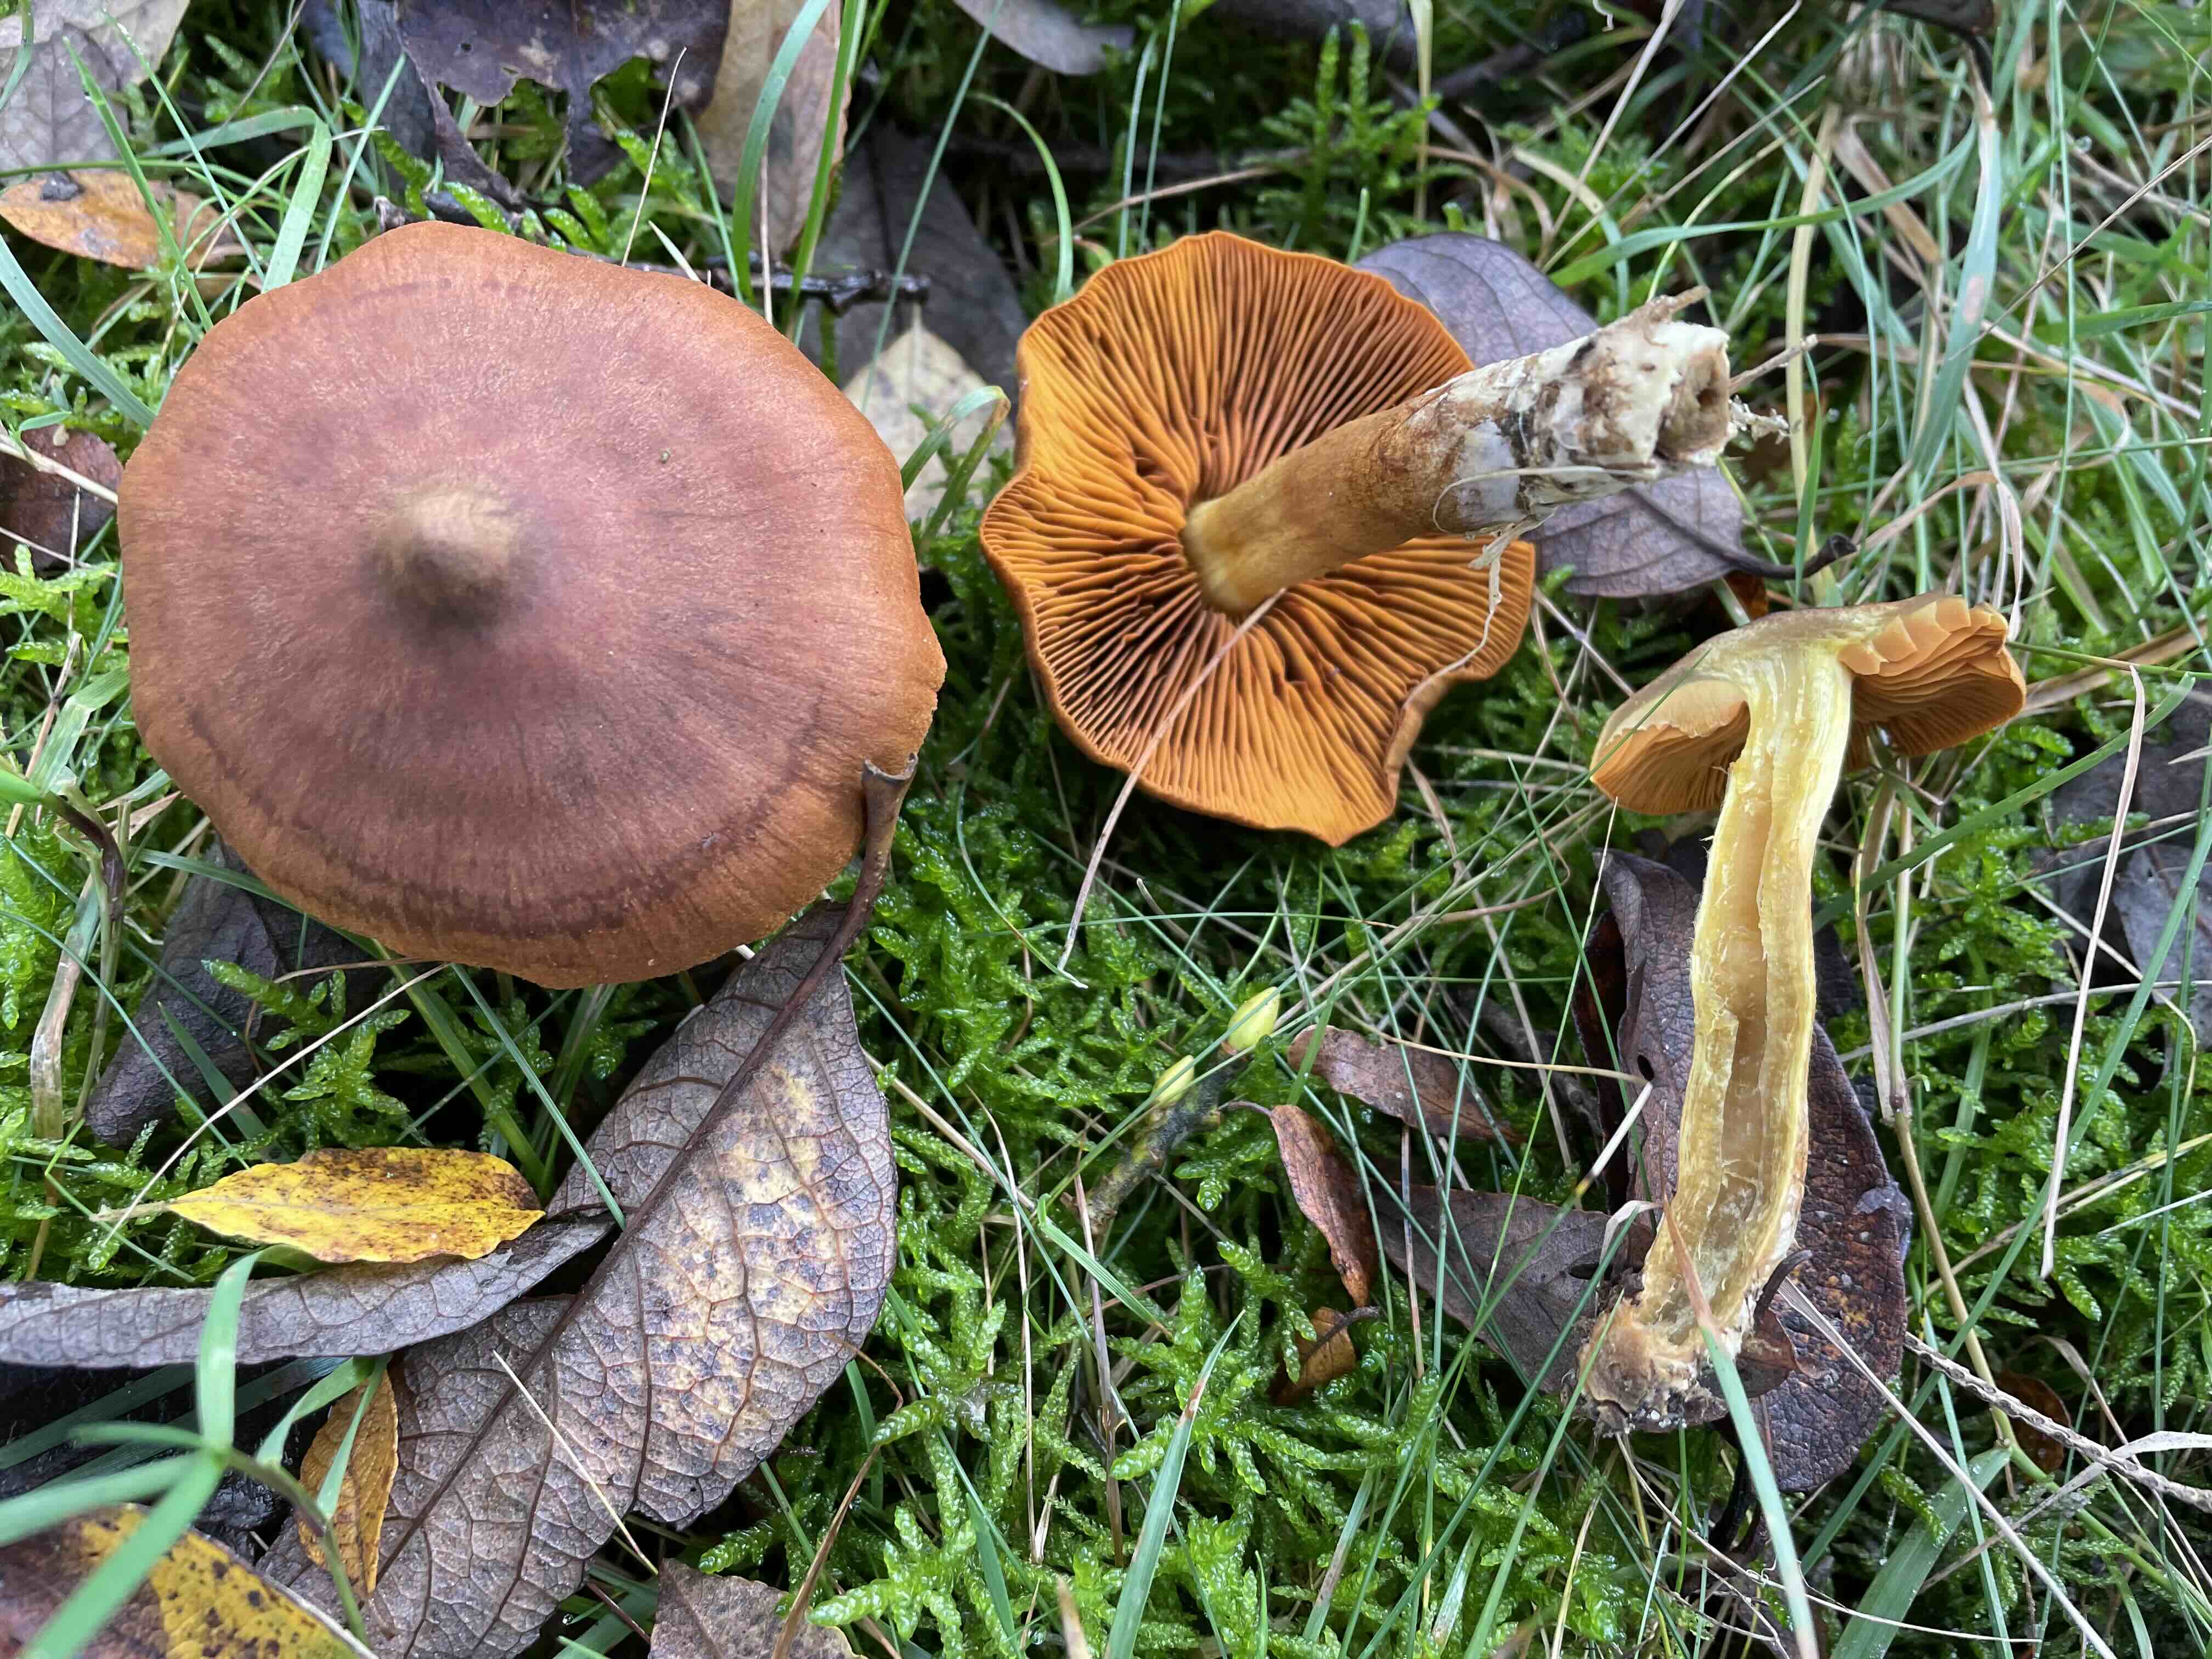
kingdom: Fungi
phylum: Basidiomycota
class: Agaricomycetes
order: Agaricales
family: Cortinariaceae
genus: Cortinarius
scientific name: Cortinarius malicorius
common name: grønkødet slørhat
